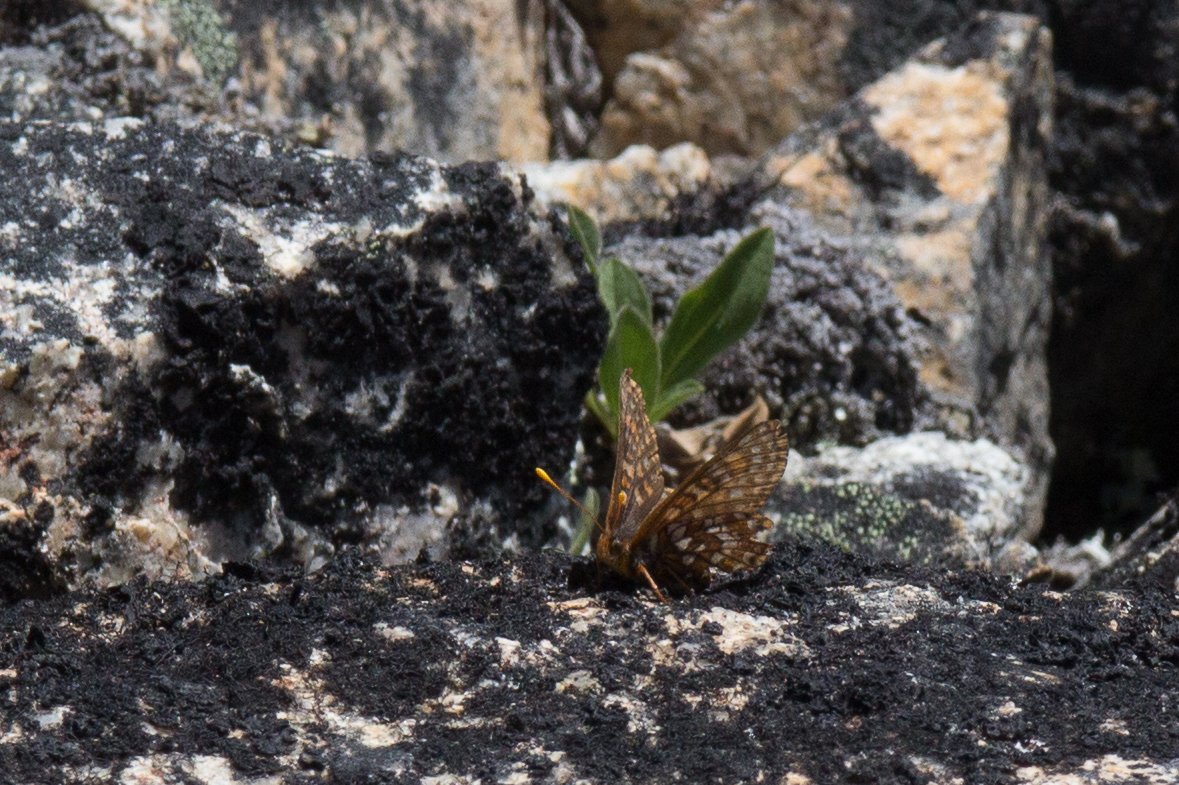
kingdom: Animalia
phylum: Arthropoda
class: Insecta
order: Lepidoptera
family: Nymphalidae
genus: Occidryas
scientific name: Occidryas chalcedona
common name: Chalcedon Checkerspot
